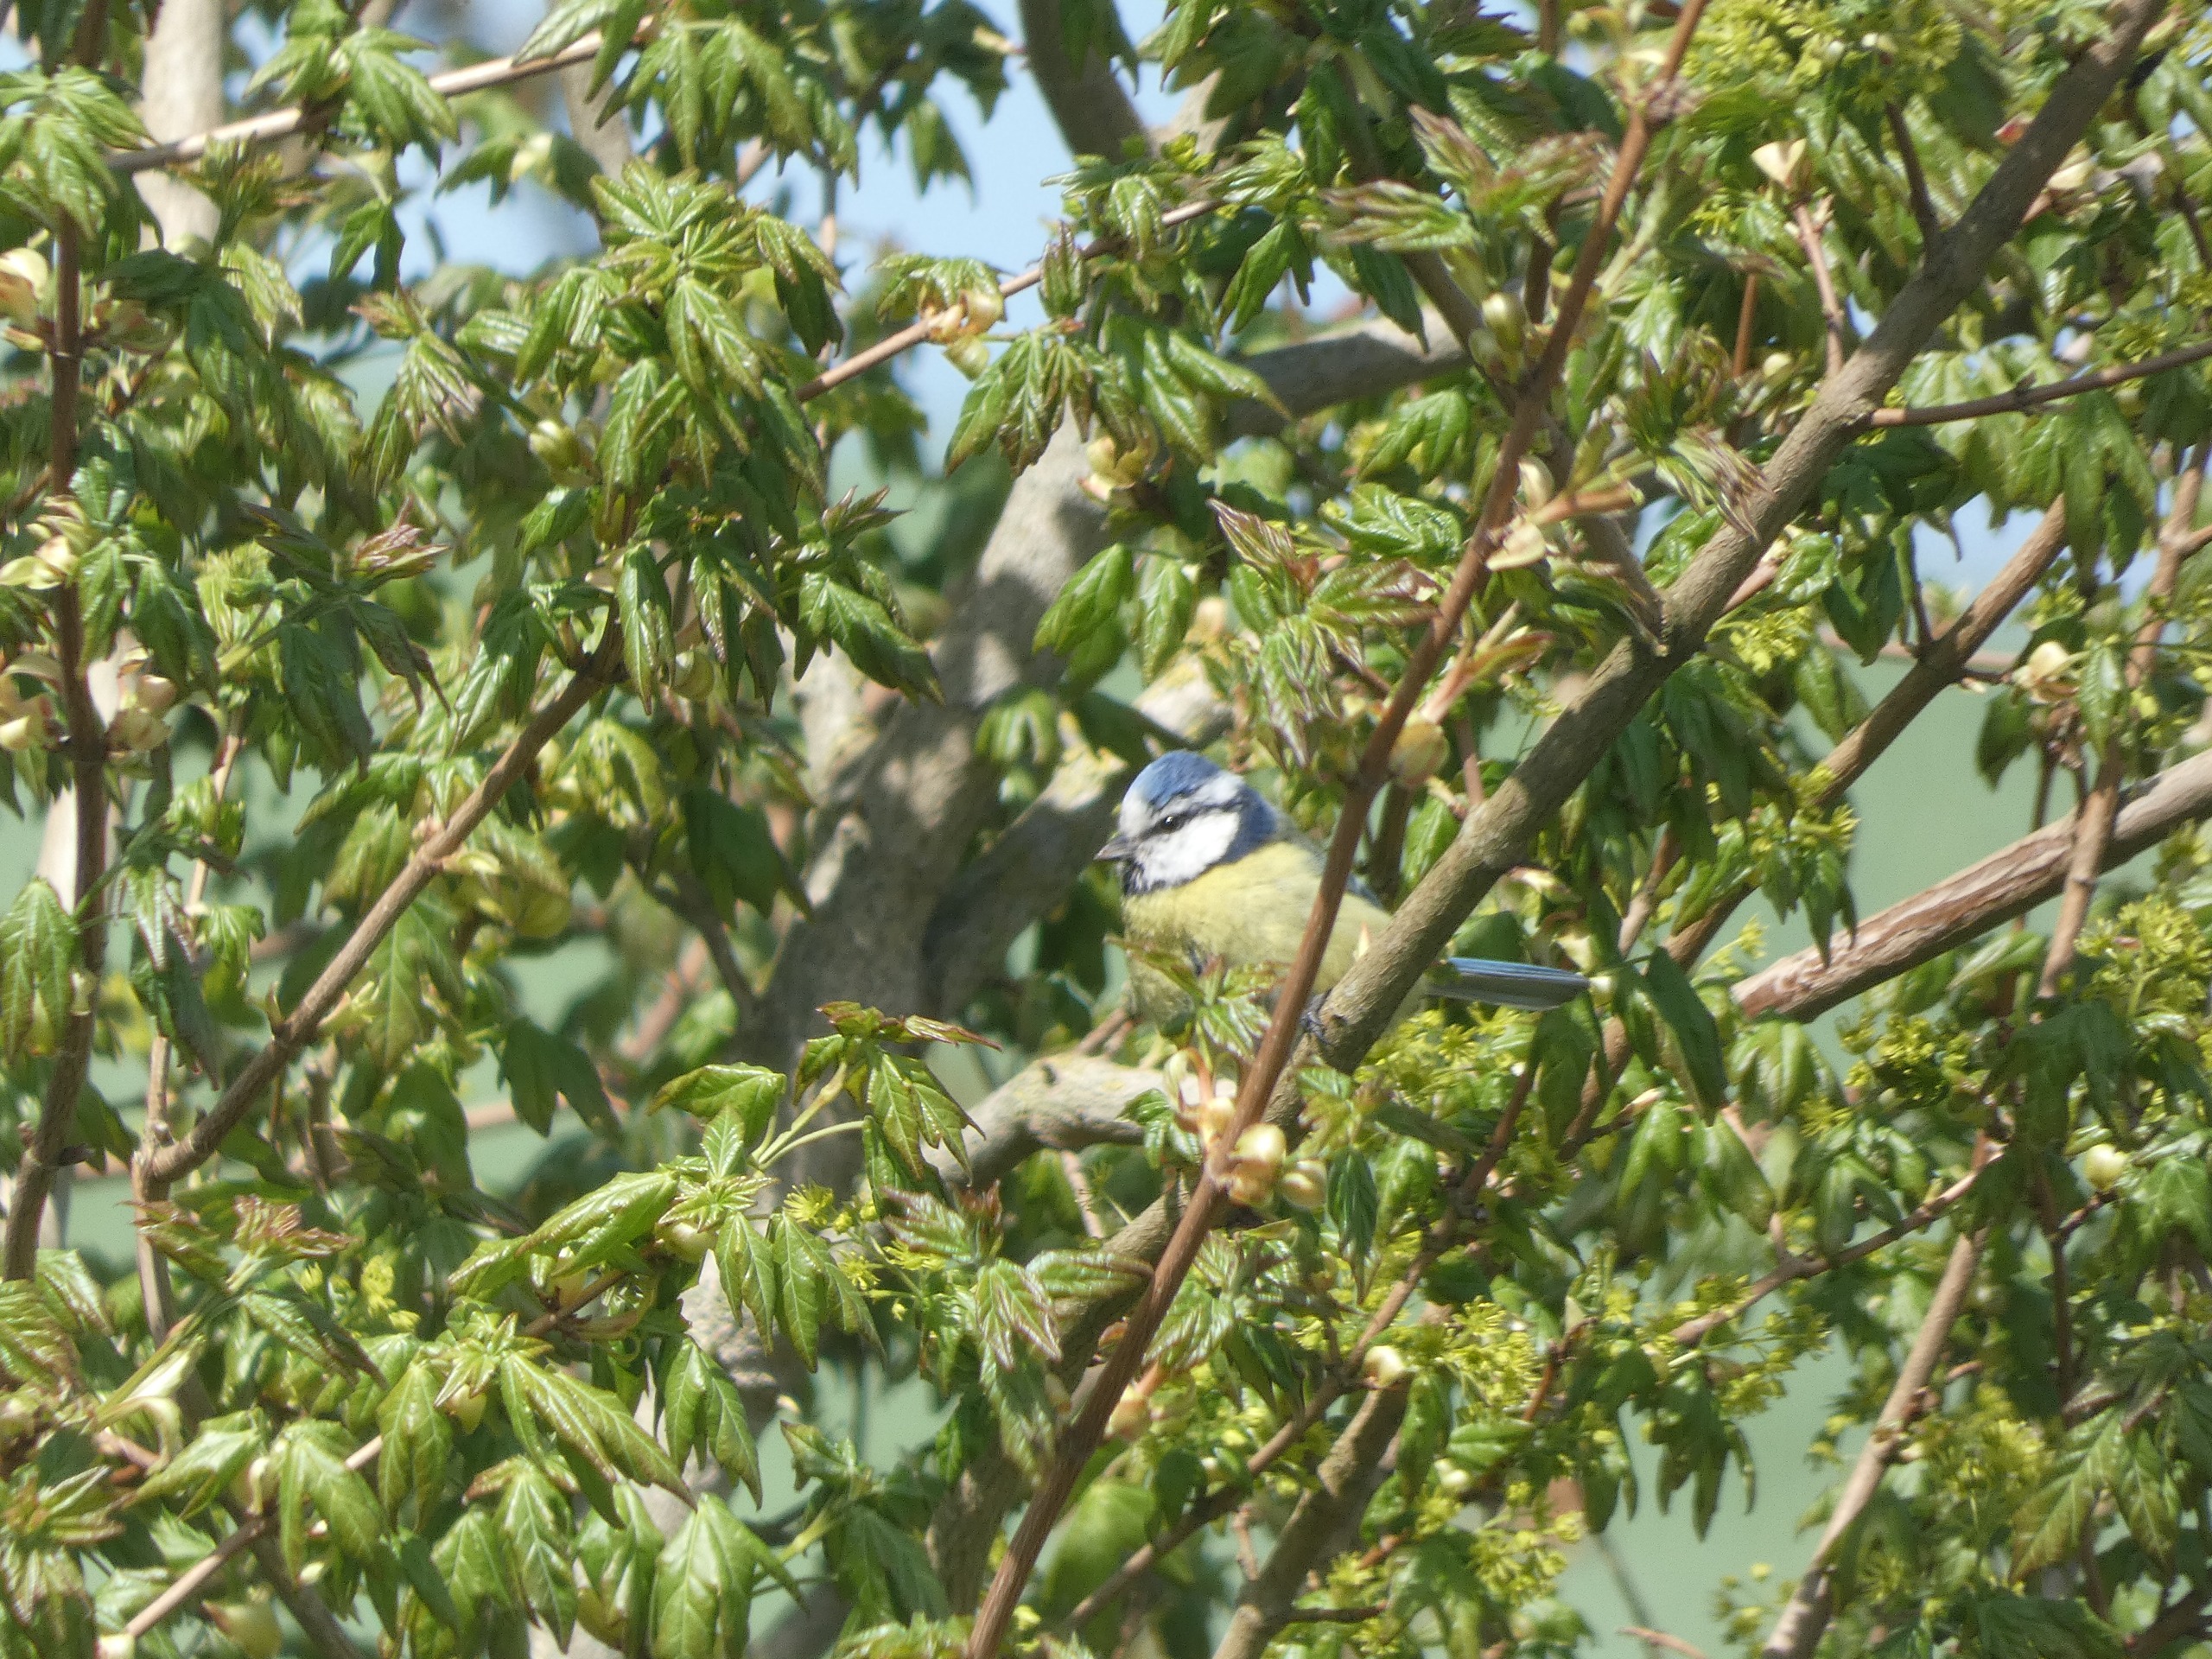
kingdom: Animalia
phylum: Chordata
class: Aves
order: Passeriformes
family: Paridae
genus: Cyanistes
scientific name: Cyanistes caeruleus
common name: Blåmejse
